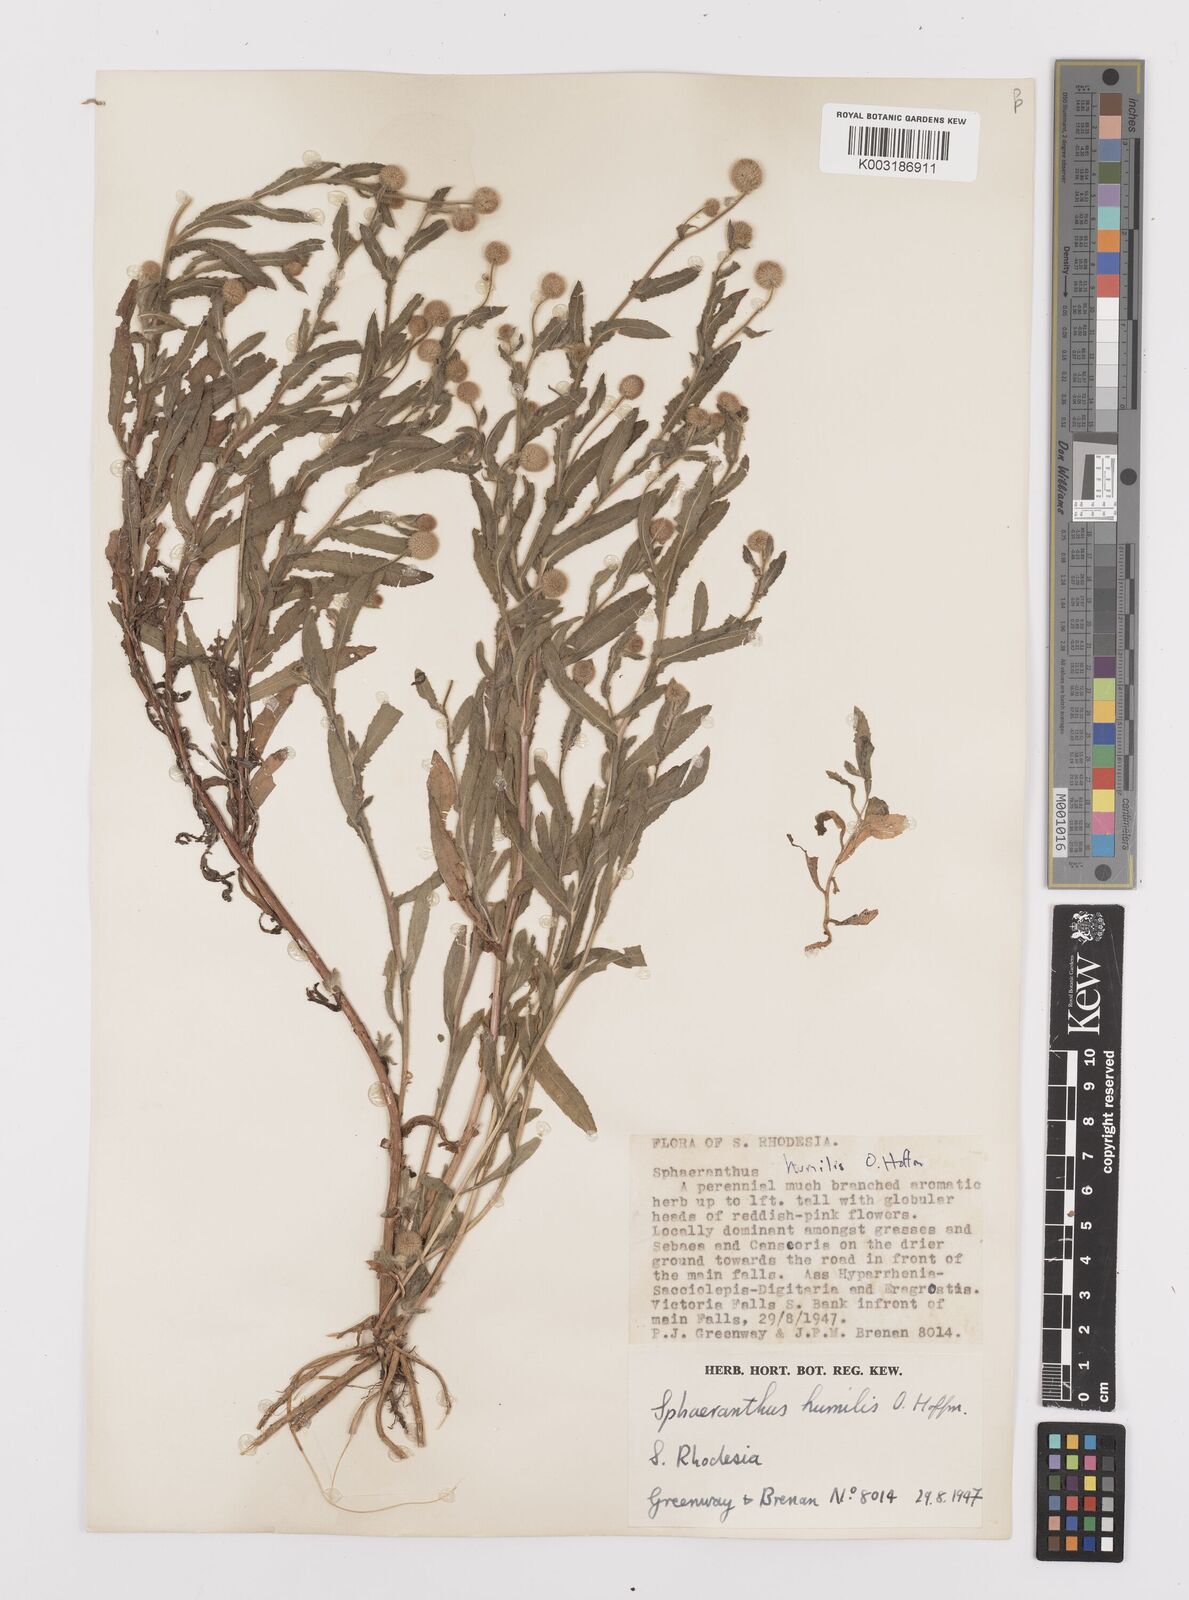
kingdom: Plantae
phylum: Tracheophyta
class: Magnoliopsida
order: Asterales
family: Asteraceae
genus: Sphaeranthus
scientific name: Sphaeranthus flexuosus
